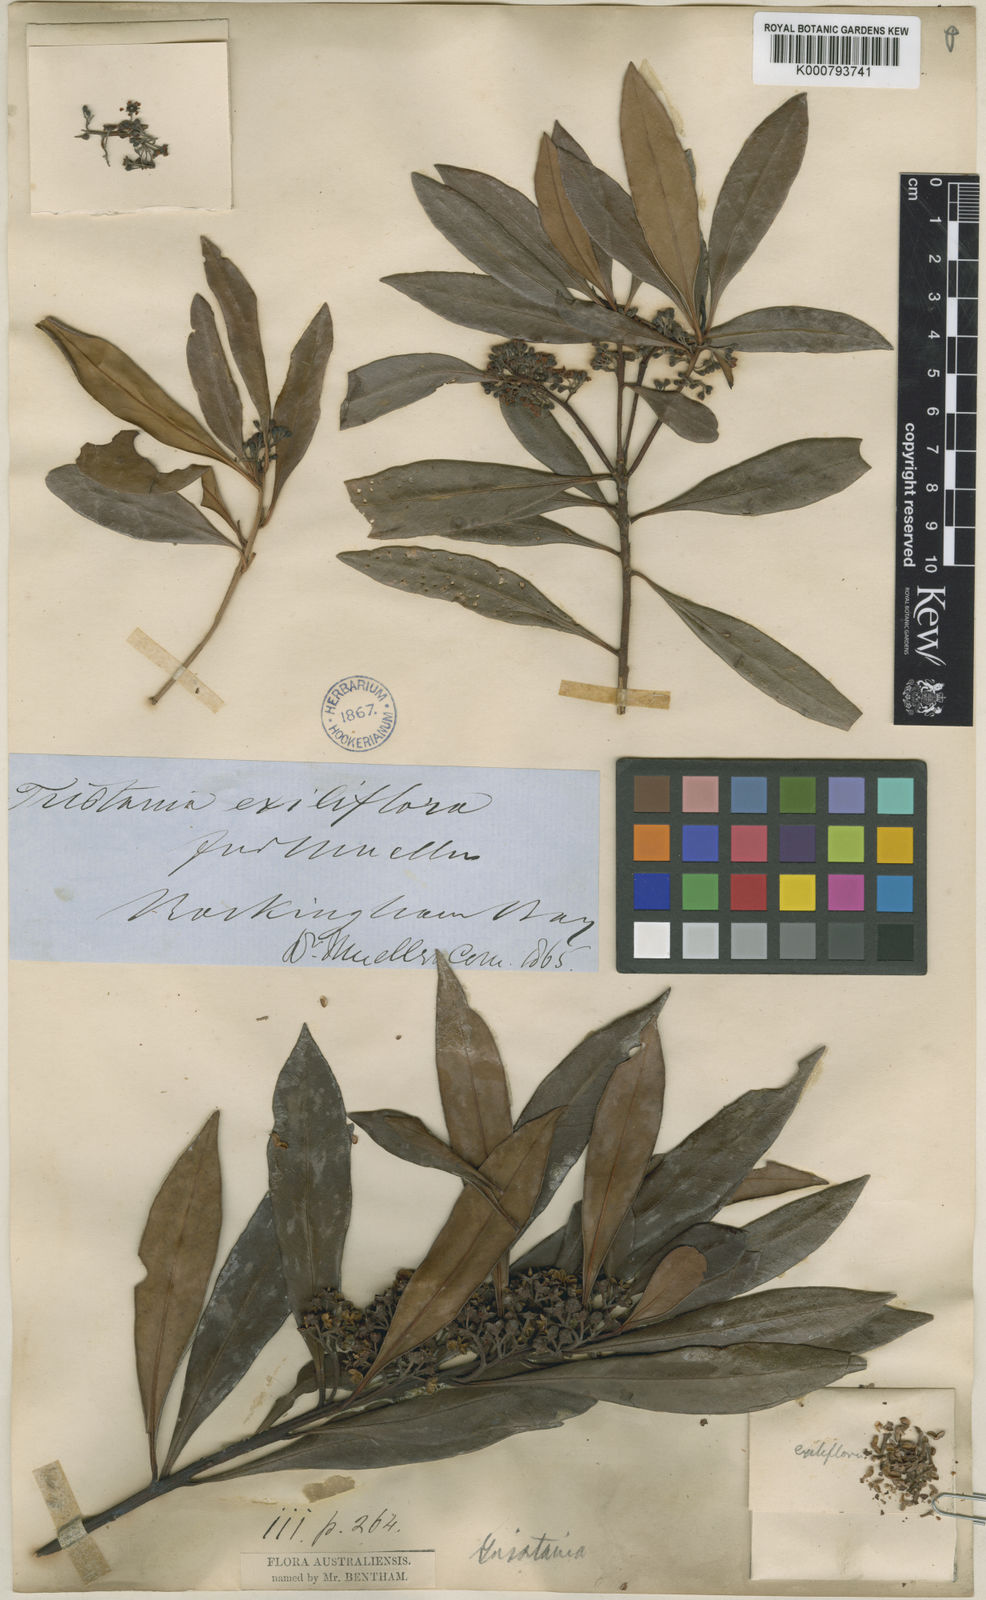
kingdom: Plantae
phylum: Tracheophyta
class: Magnoliopsida
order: Myrtales
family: Myrtaceae
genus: Tristaniopsis
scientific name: Tristaniopsis exiliflora
